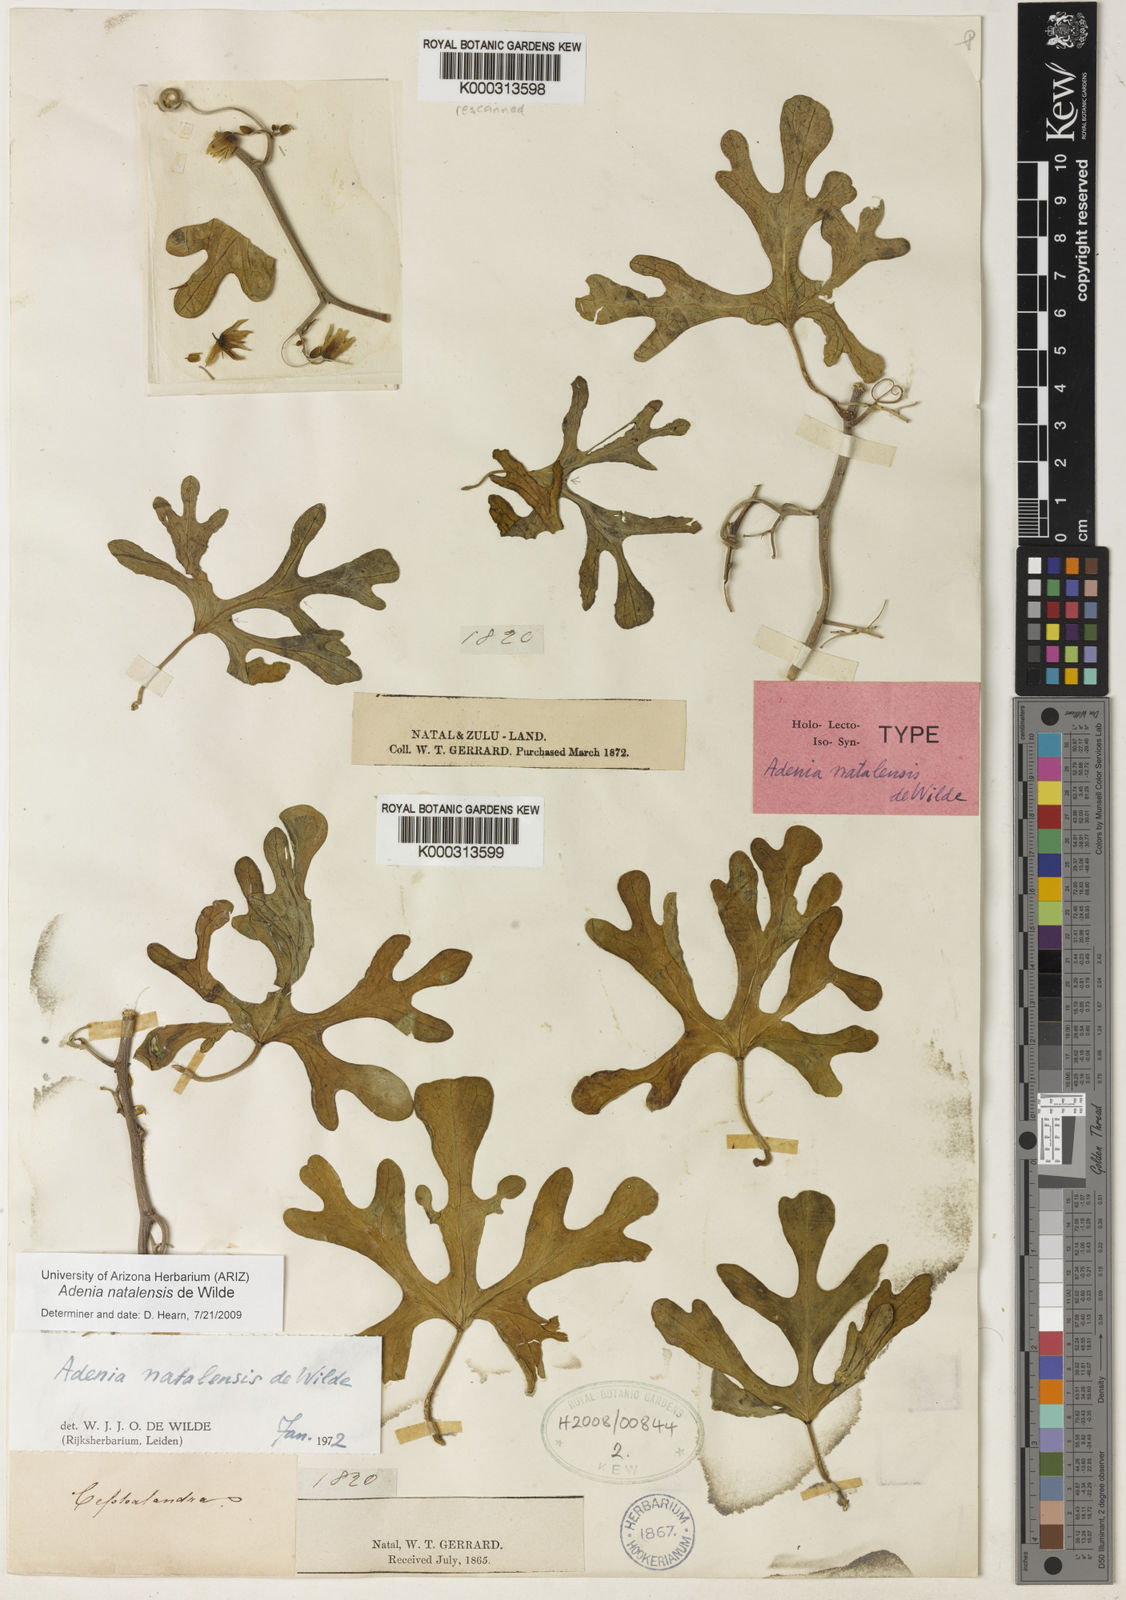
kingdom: Plantae
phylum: Tracheophyta
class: Magnoliopsida
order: Malpighiales
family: Passifloraceae
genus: Adenia
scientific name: Adenia natalensis
